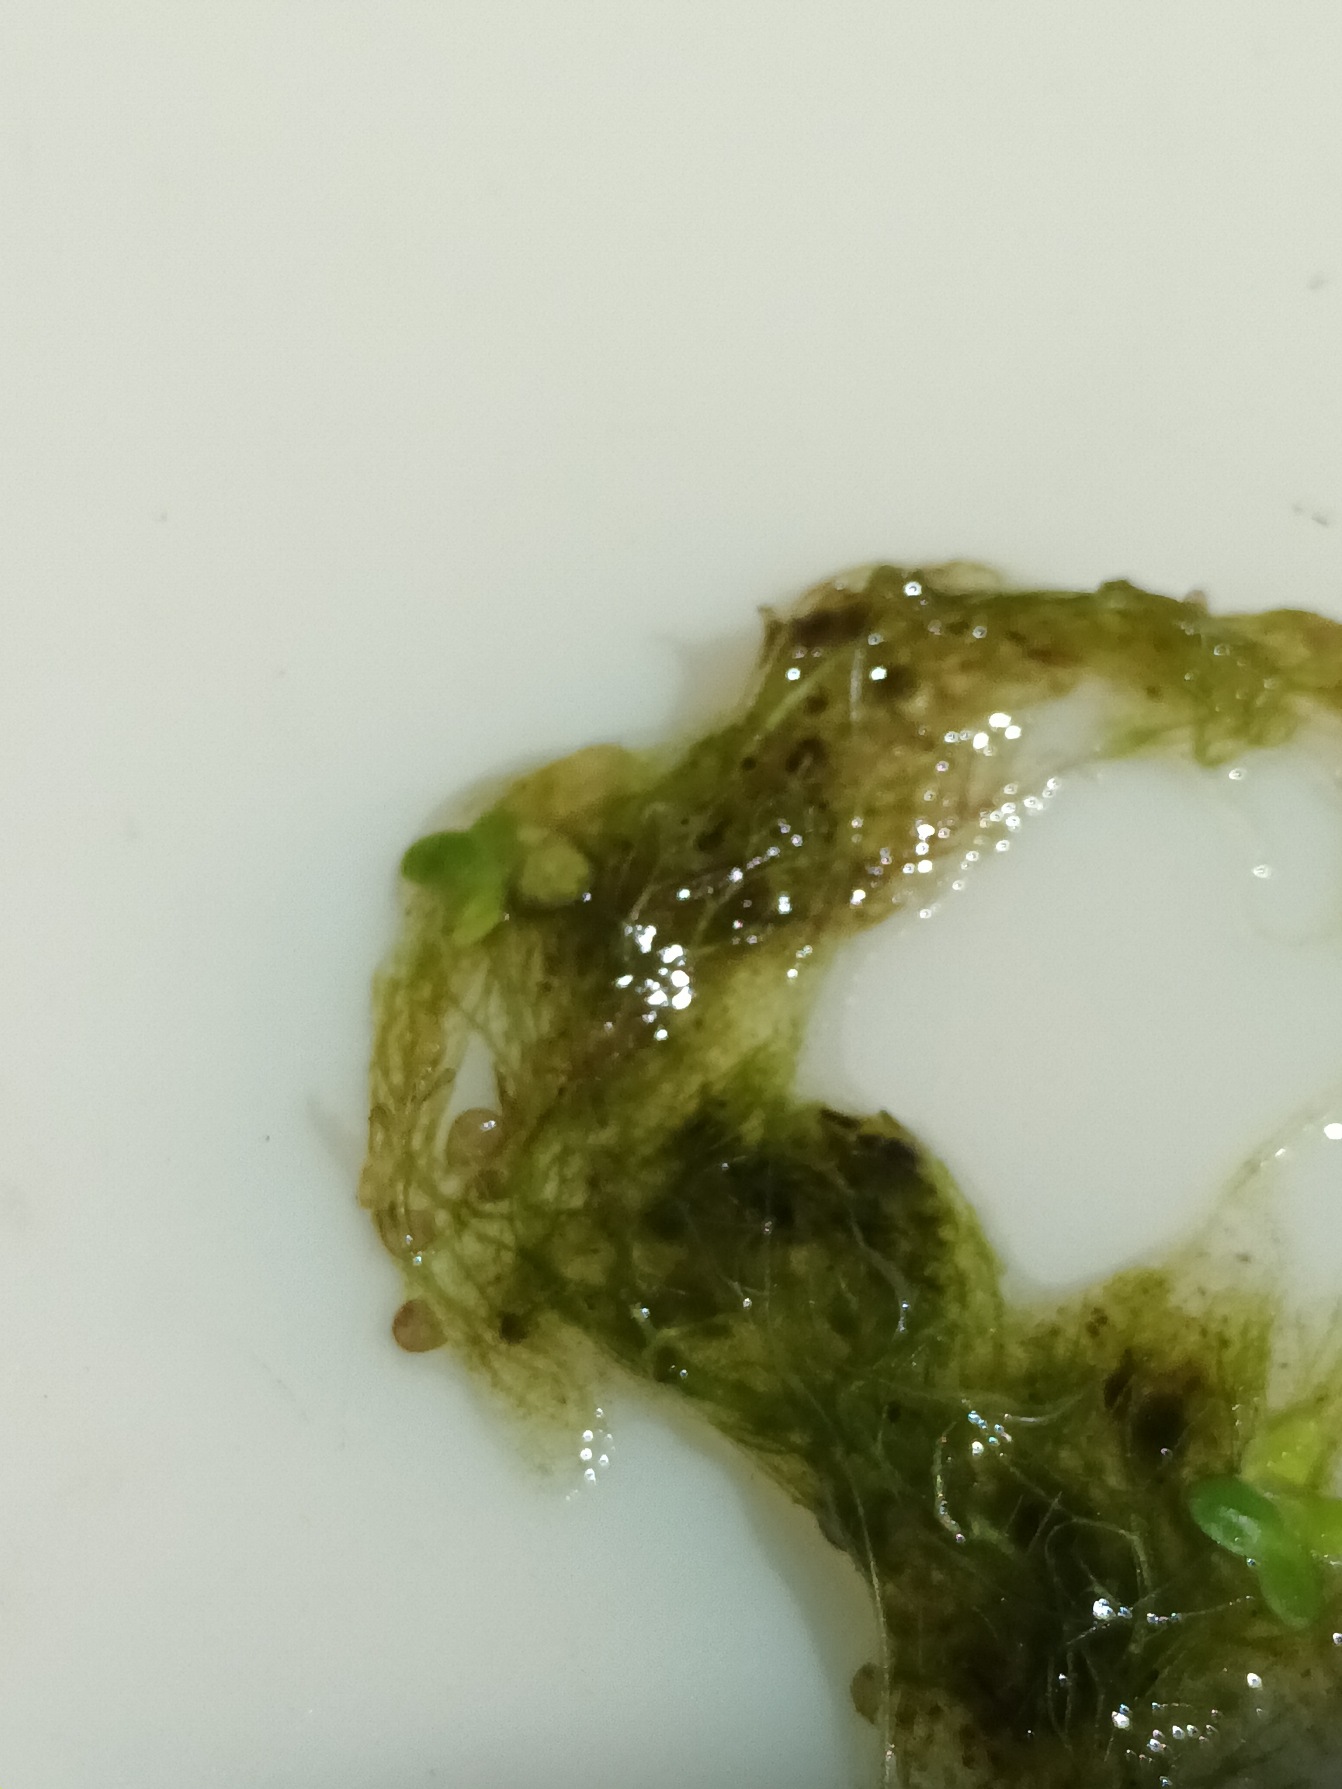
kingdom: Plantae
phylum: Tracheophyta
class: Magnoliopsida
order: Lamiales
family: Lentibulariaceae
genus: Utricularia
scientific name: Utricularia
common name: Blærerodslægten
